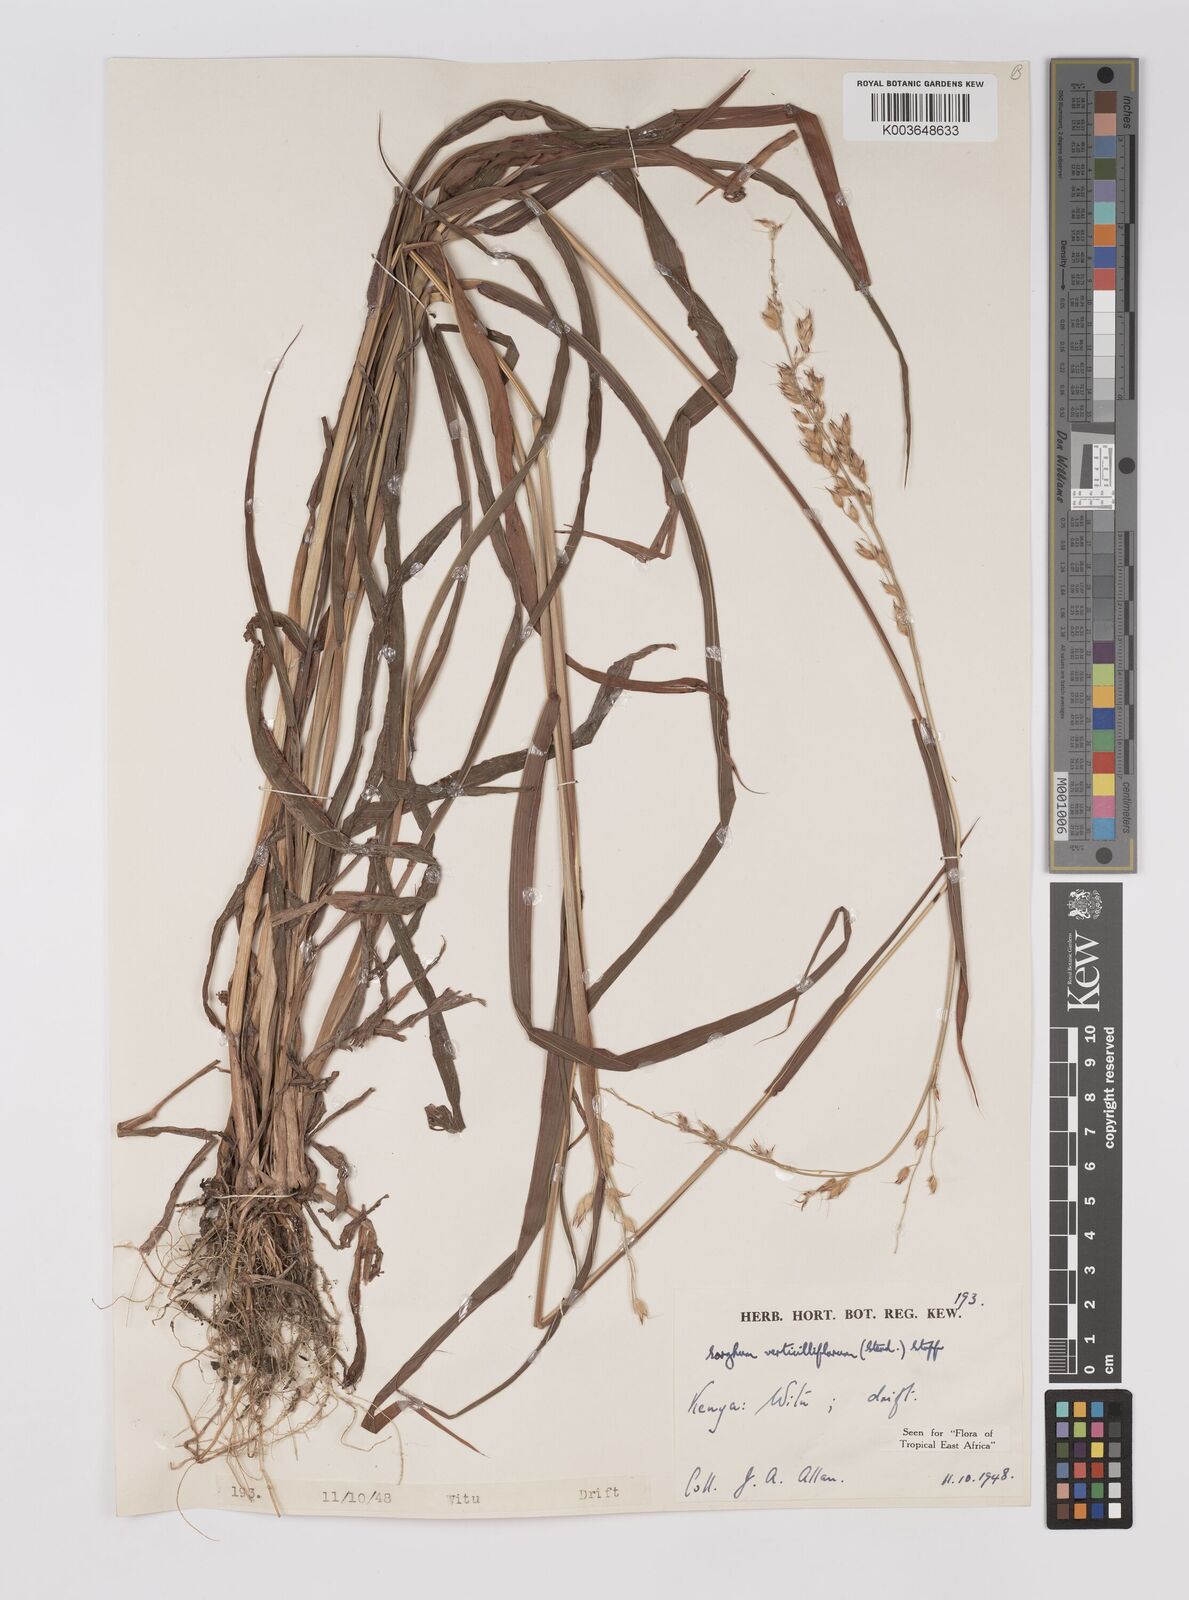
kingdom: Plantae
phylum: Tracheophyta
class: Liliopsida
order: Poales
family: Poaceae
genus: Sorghum
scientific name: Sorghum arundinaceum
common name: Sorghum
